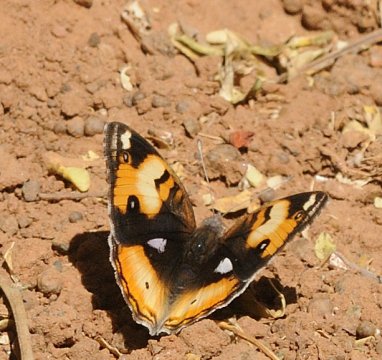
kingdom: Animalia
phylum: Arthropoda
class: Insecta
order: Lepidoptera
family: Nymphalidae
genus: Junonia
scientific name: Junonia hierta
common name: Yellow Pansy
